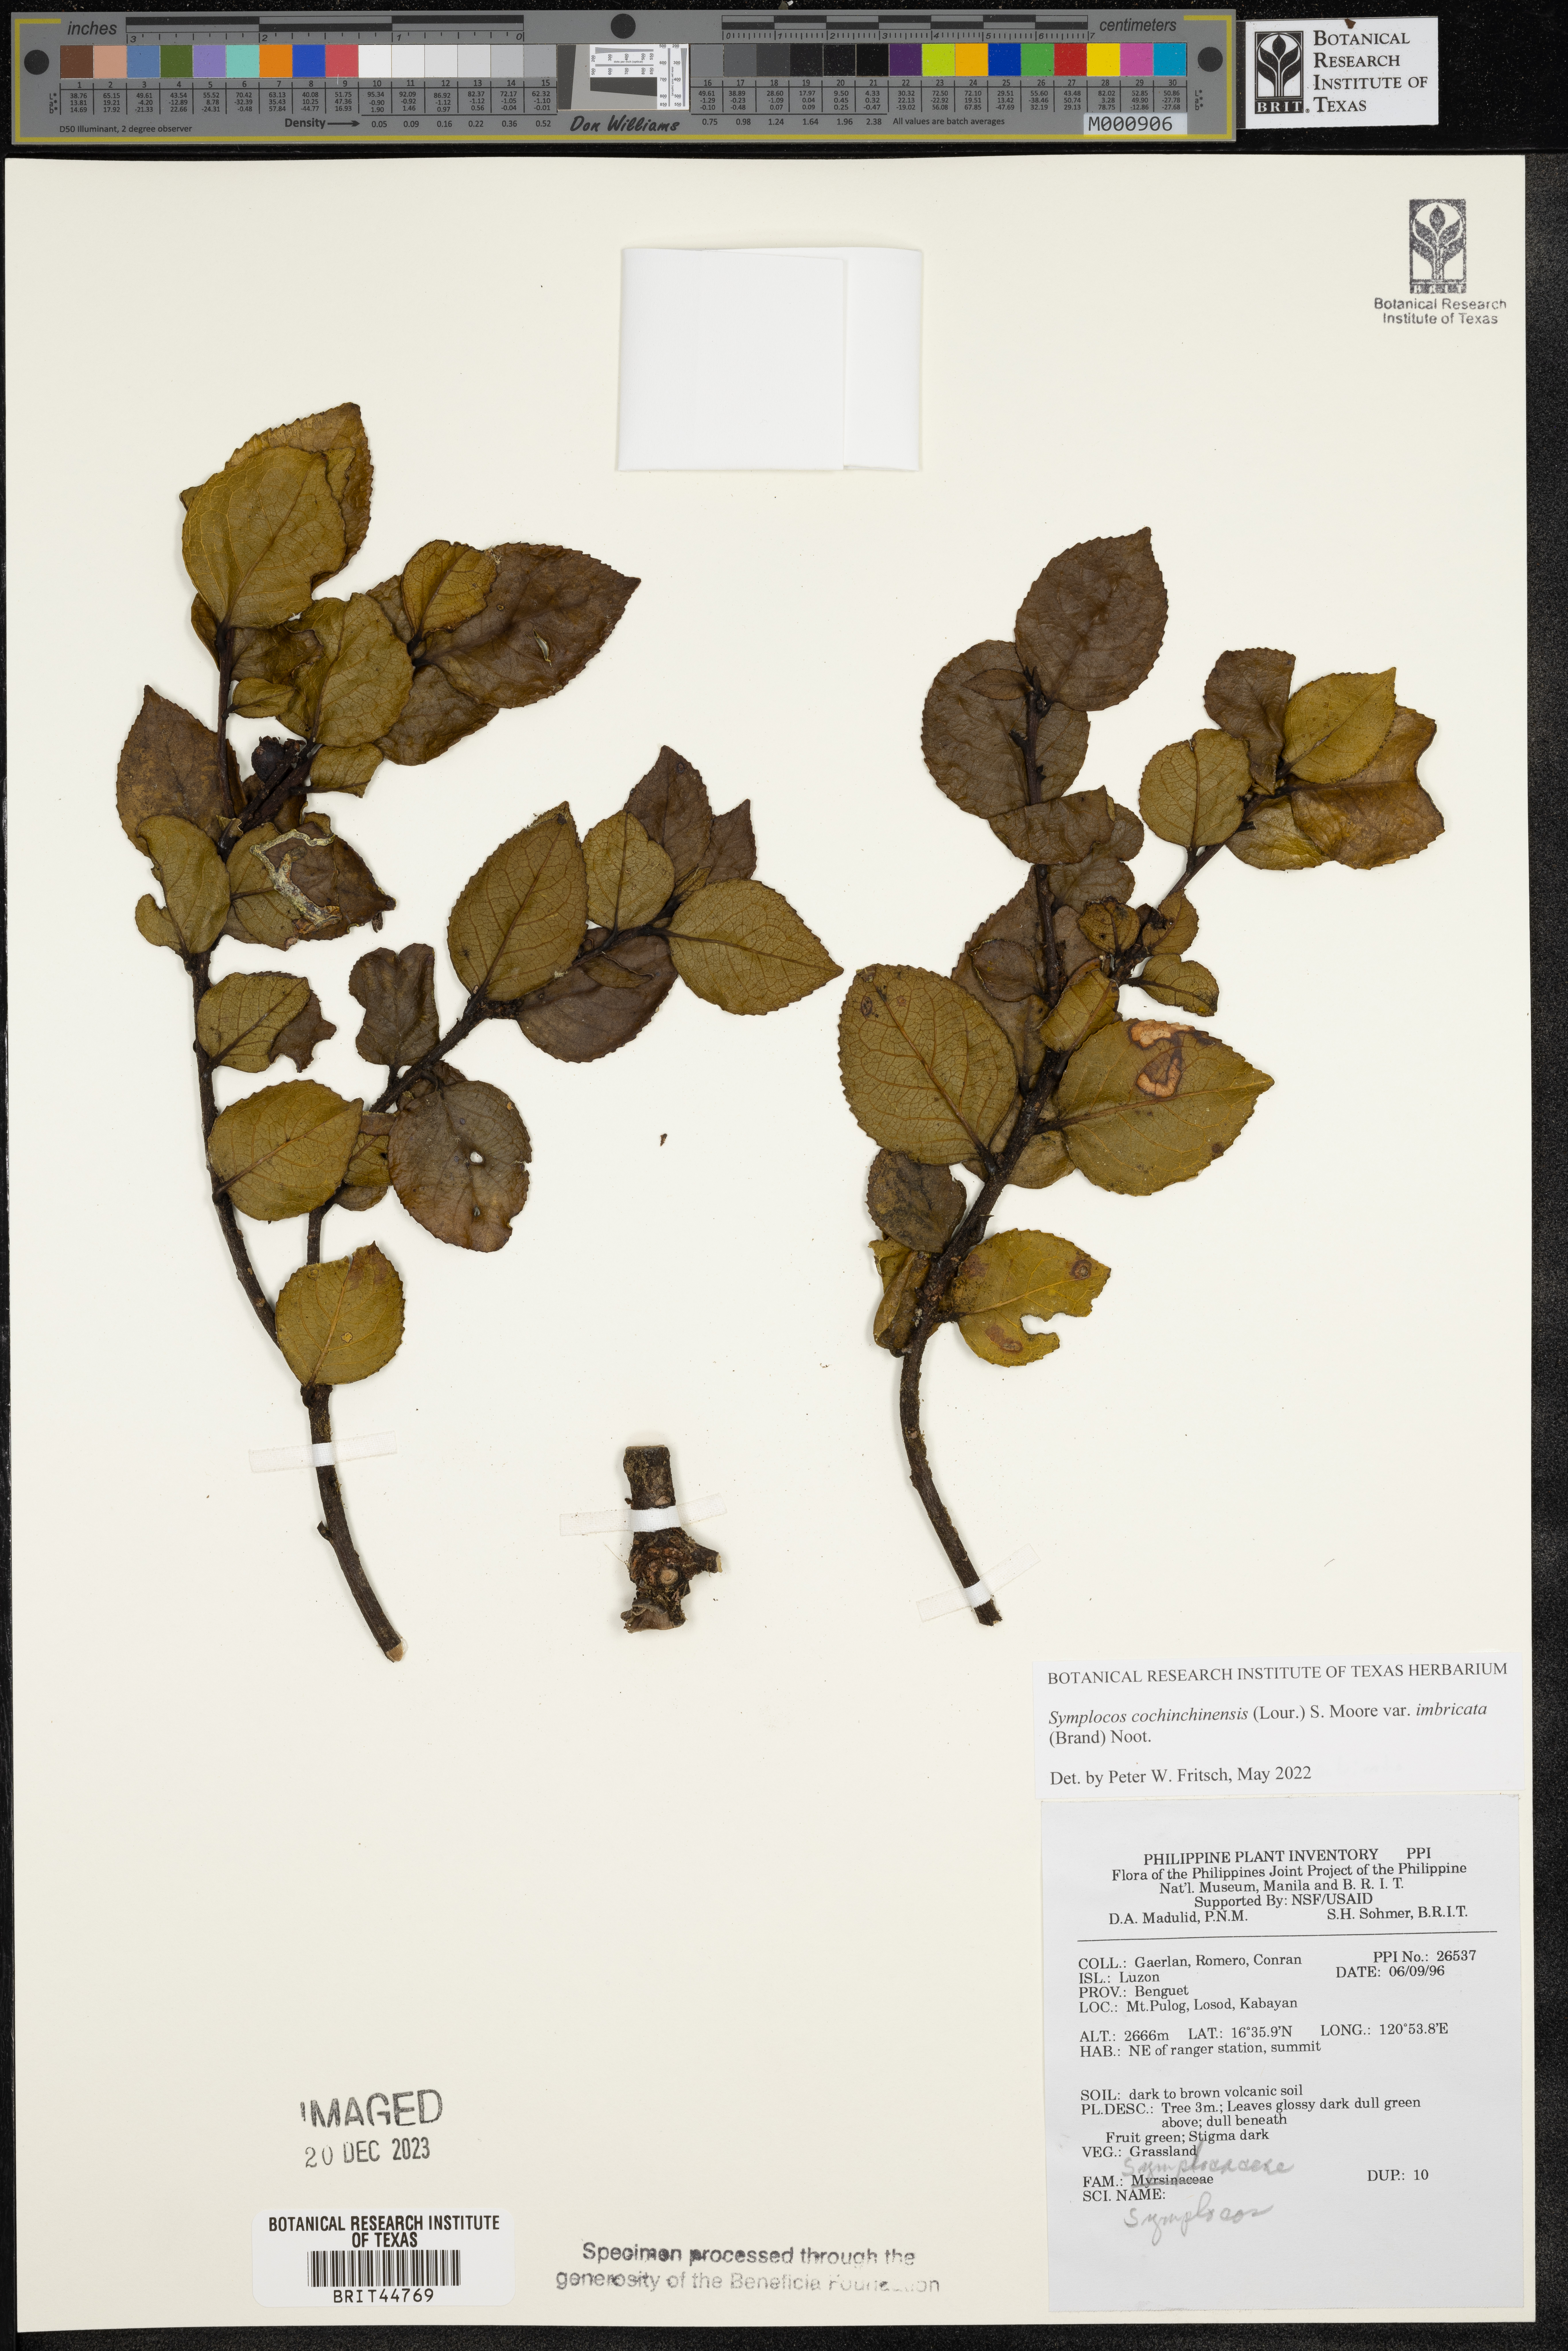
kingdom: Plantae
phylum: Tracheophyta
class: Magnoliopsida
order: Ericales
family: Symplocaceae
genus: Symplocos
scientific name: Symplocos imbricata
